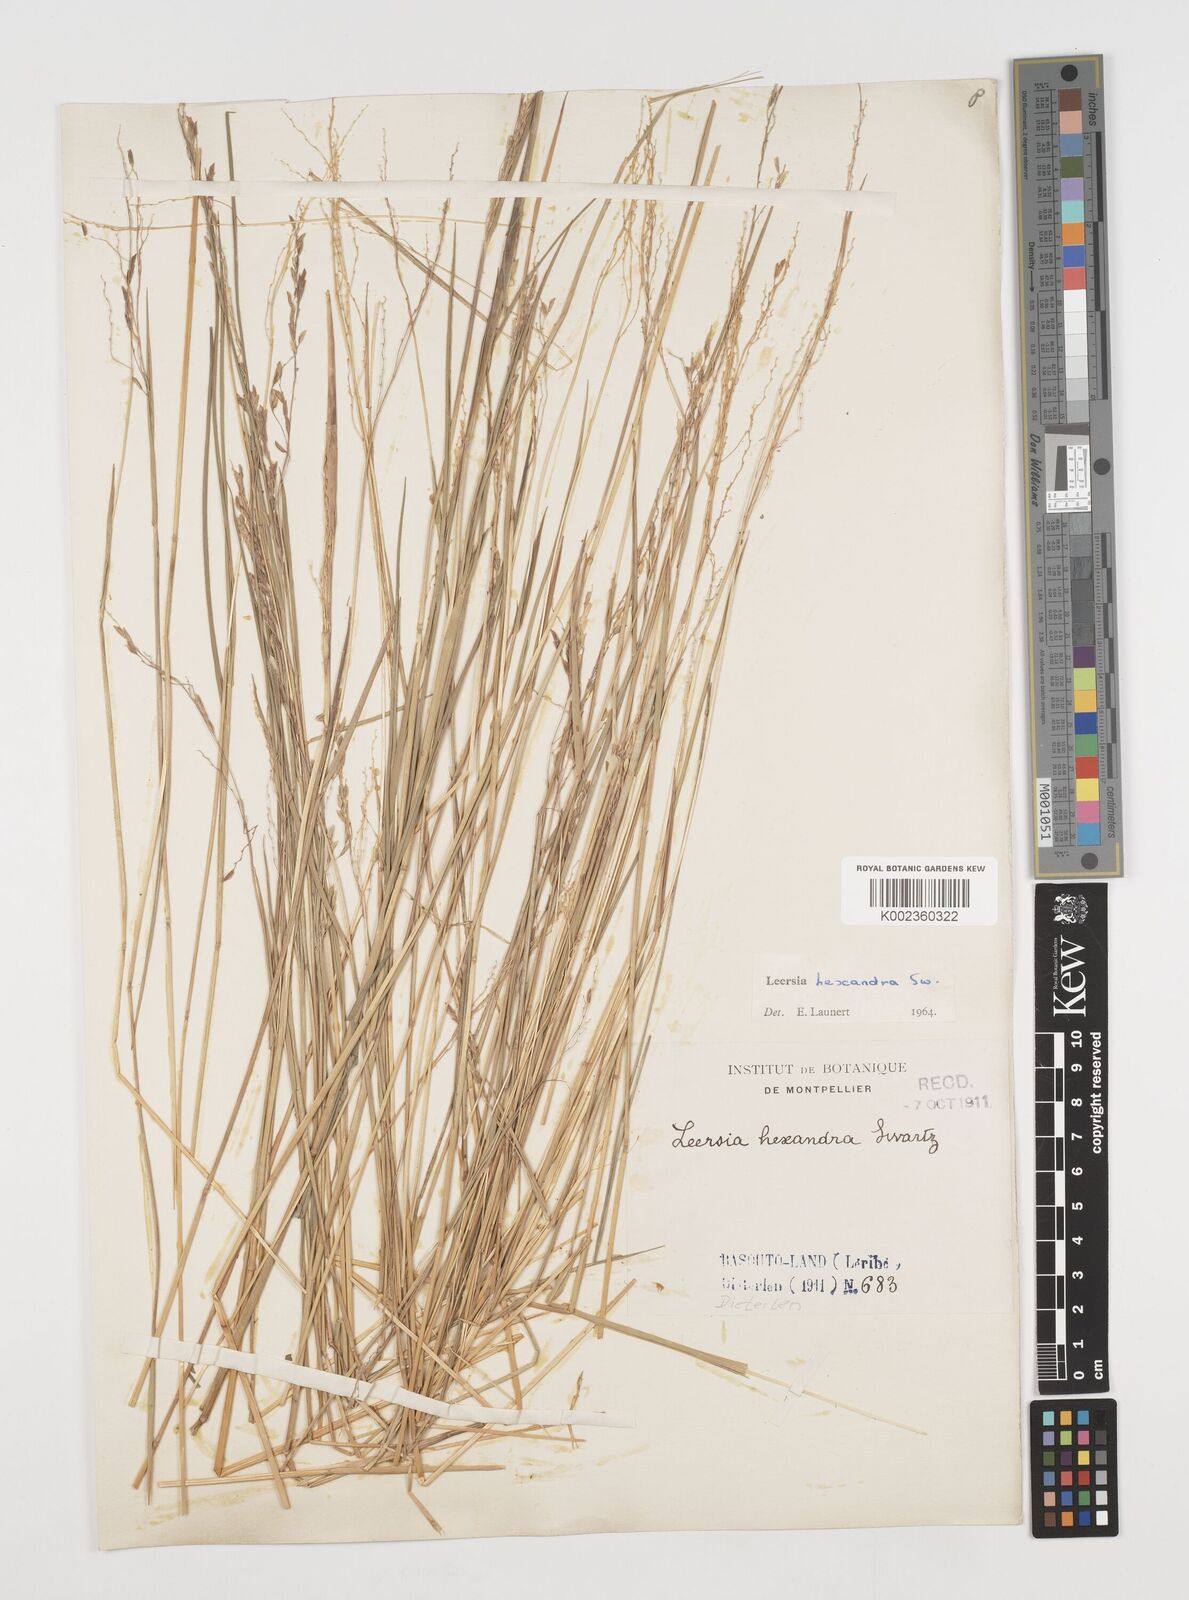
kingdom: Plantae
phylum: Tracheophyta
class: Liliopsida
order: Poales
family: Poaceae
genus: Leersia
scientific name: Leersia hexandra
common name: Southern cut grass
